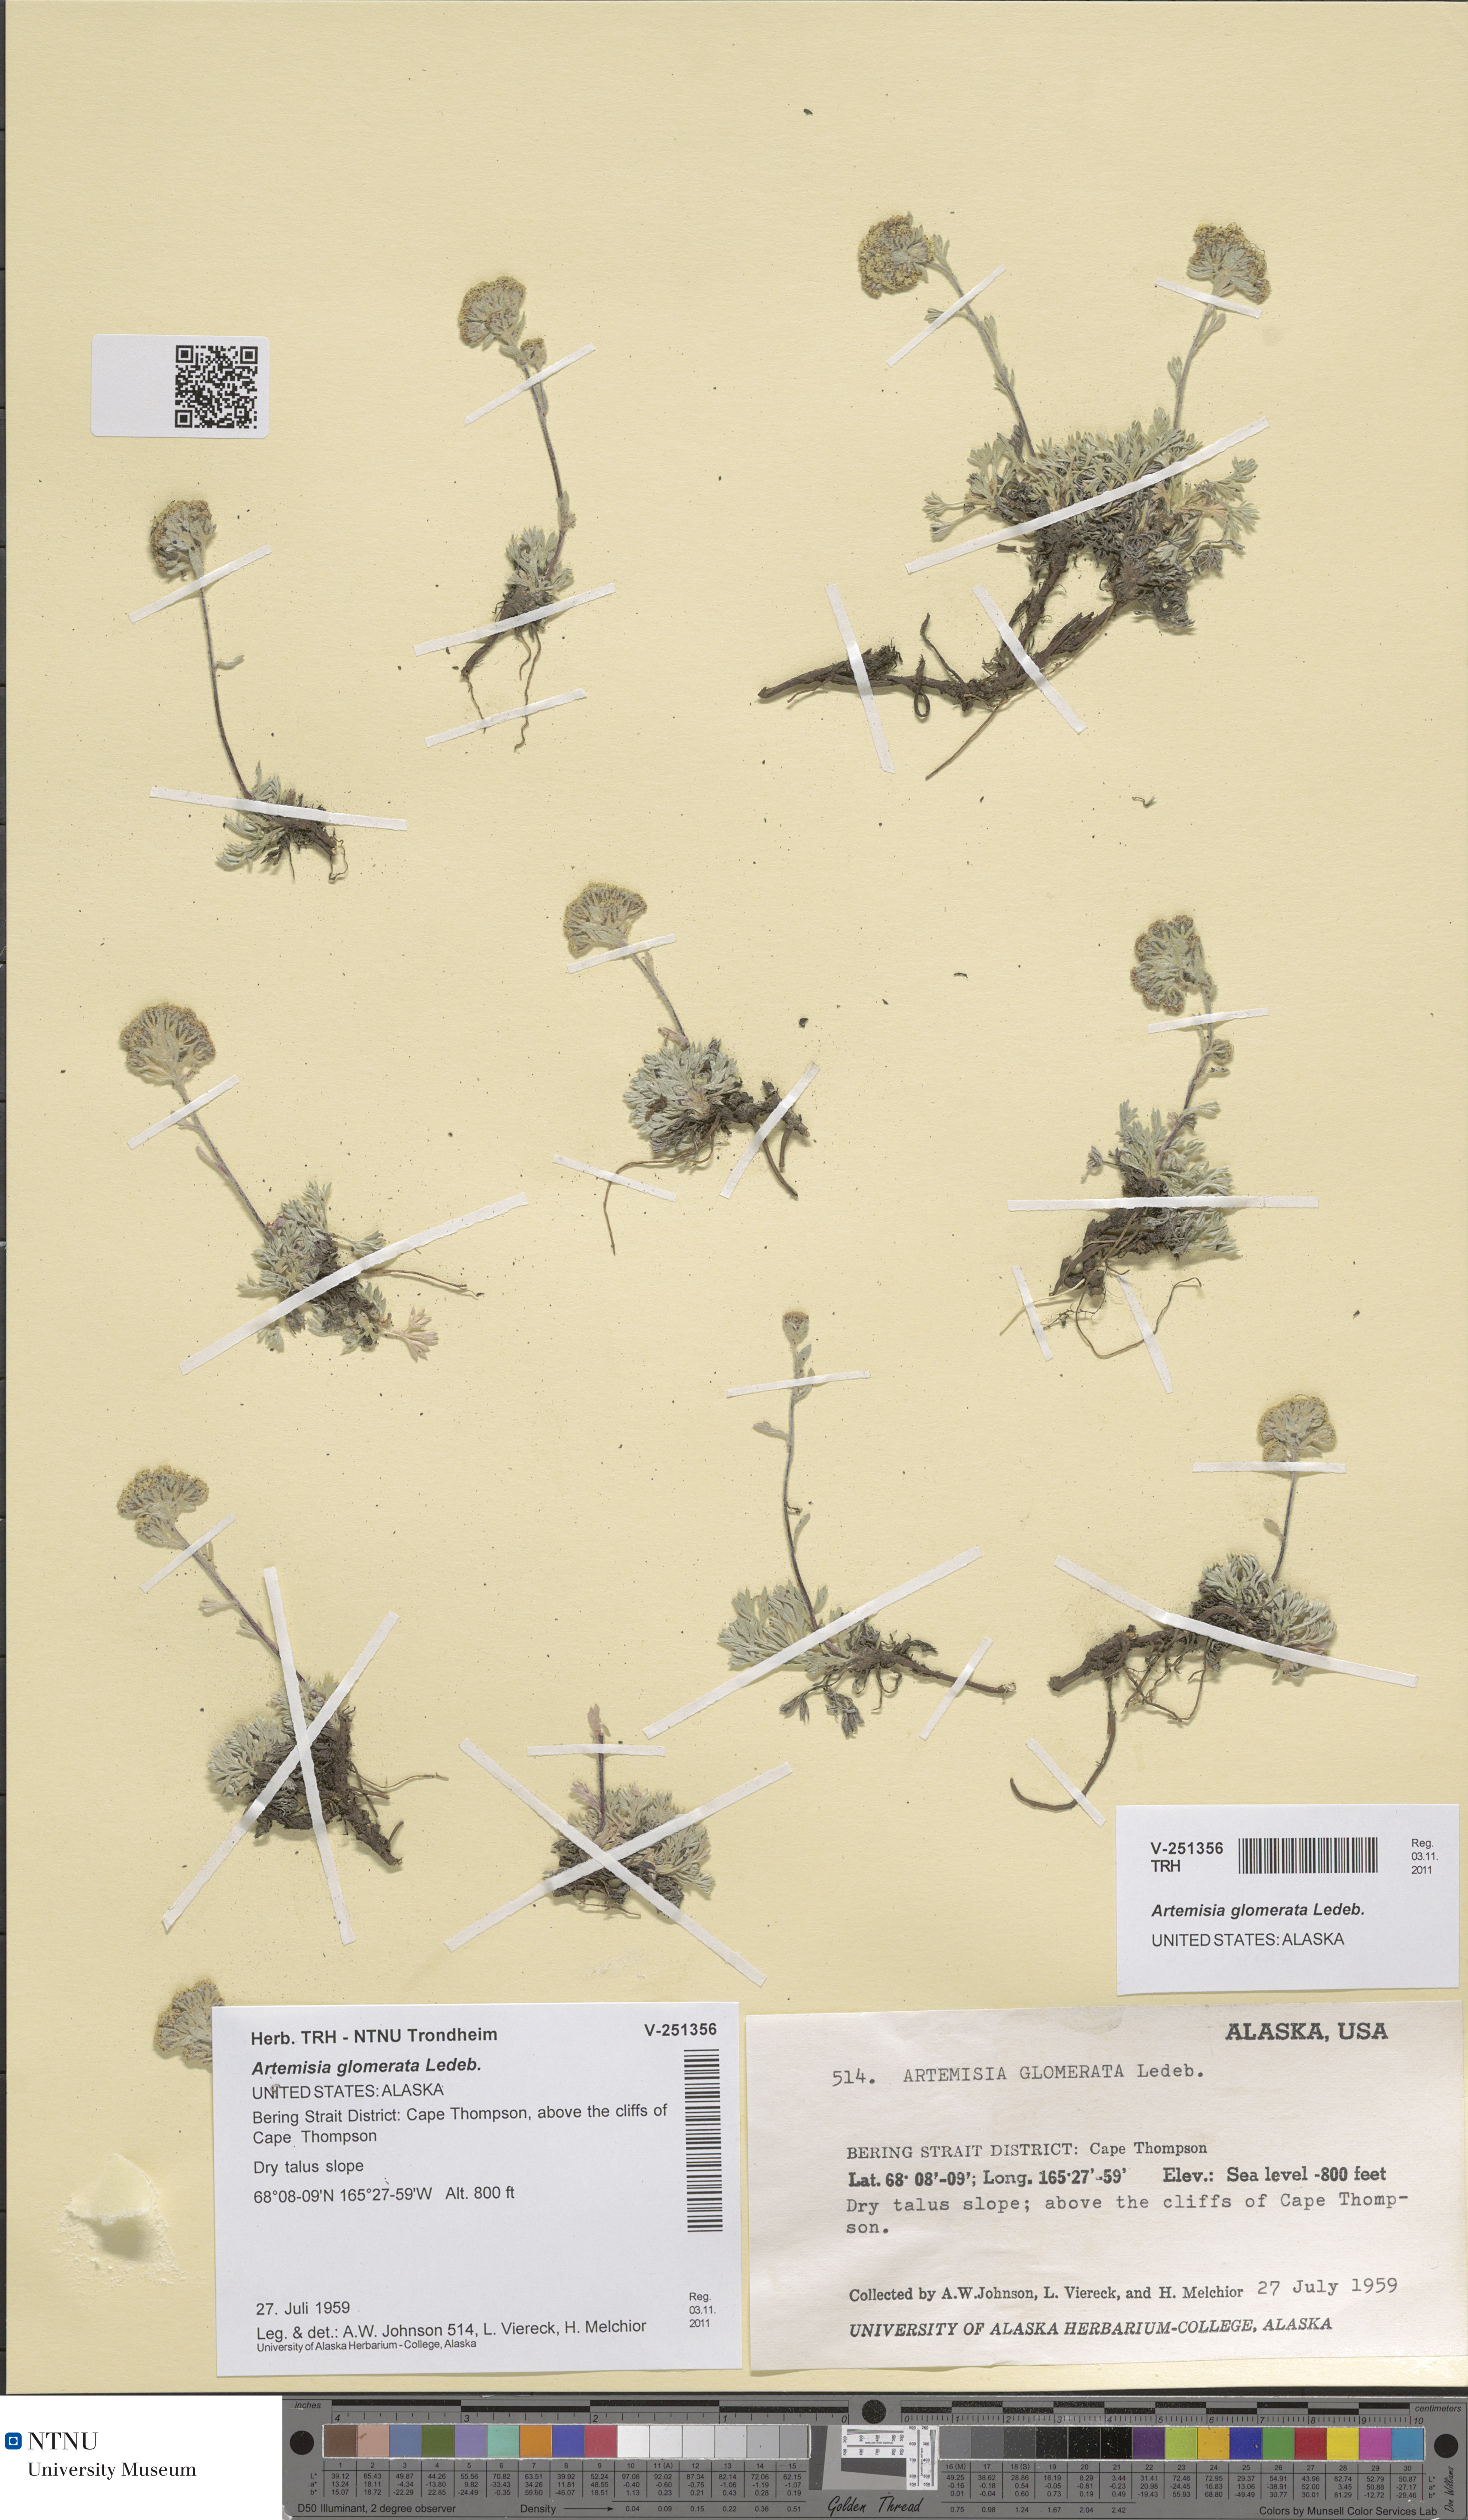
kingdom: Plantae
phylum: Tracheophyta
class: Magnoliopsida
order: Asterales
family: Asteraceae
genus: Artemisia
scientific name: Artemisia glomerata
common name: Pacific alpine wormwood
